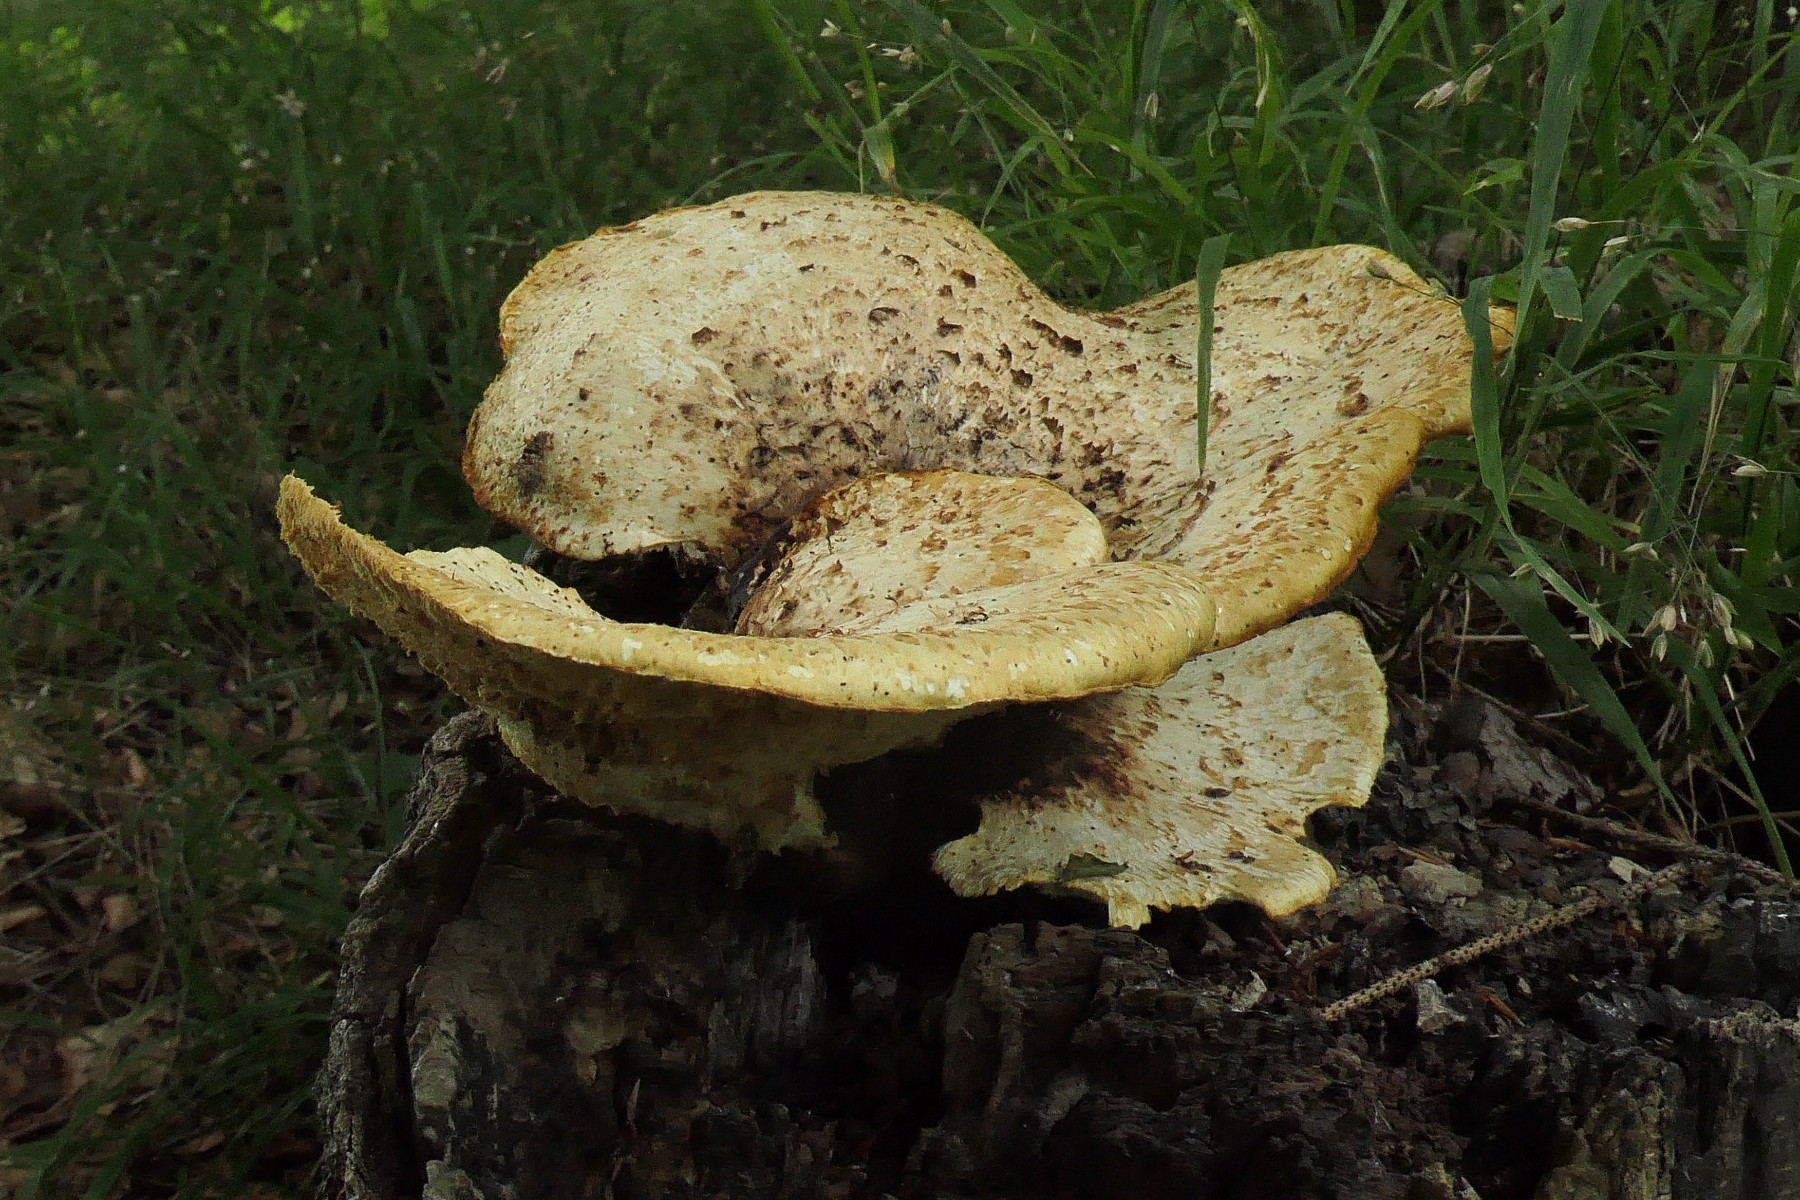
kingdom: Fungi
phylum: Basidiomycota
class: Agaricomycetes
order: Polyporales
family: Polyporaceae
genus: Cerioporus
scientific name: Cerioporus squamosus
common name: skællet stilkporesvamp
